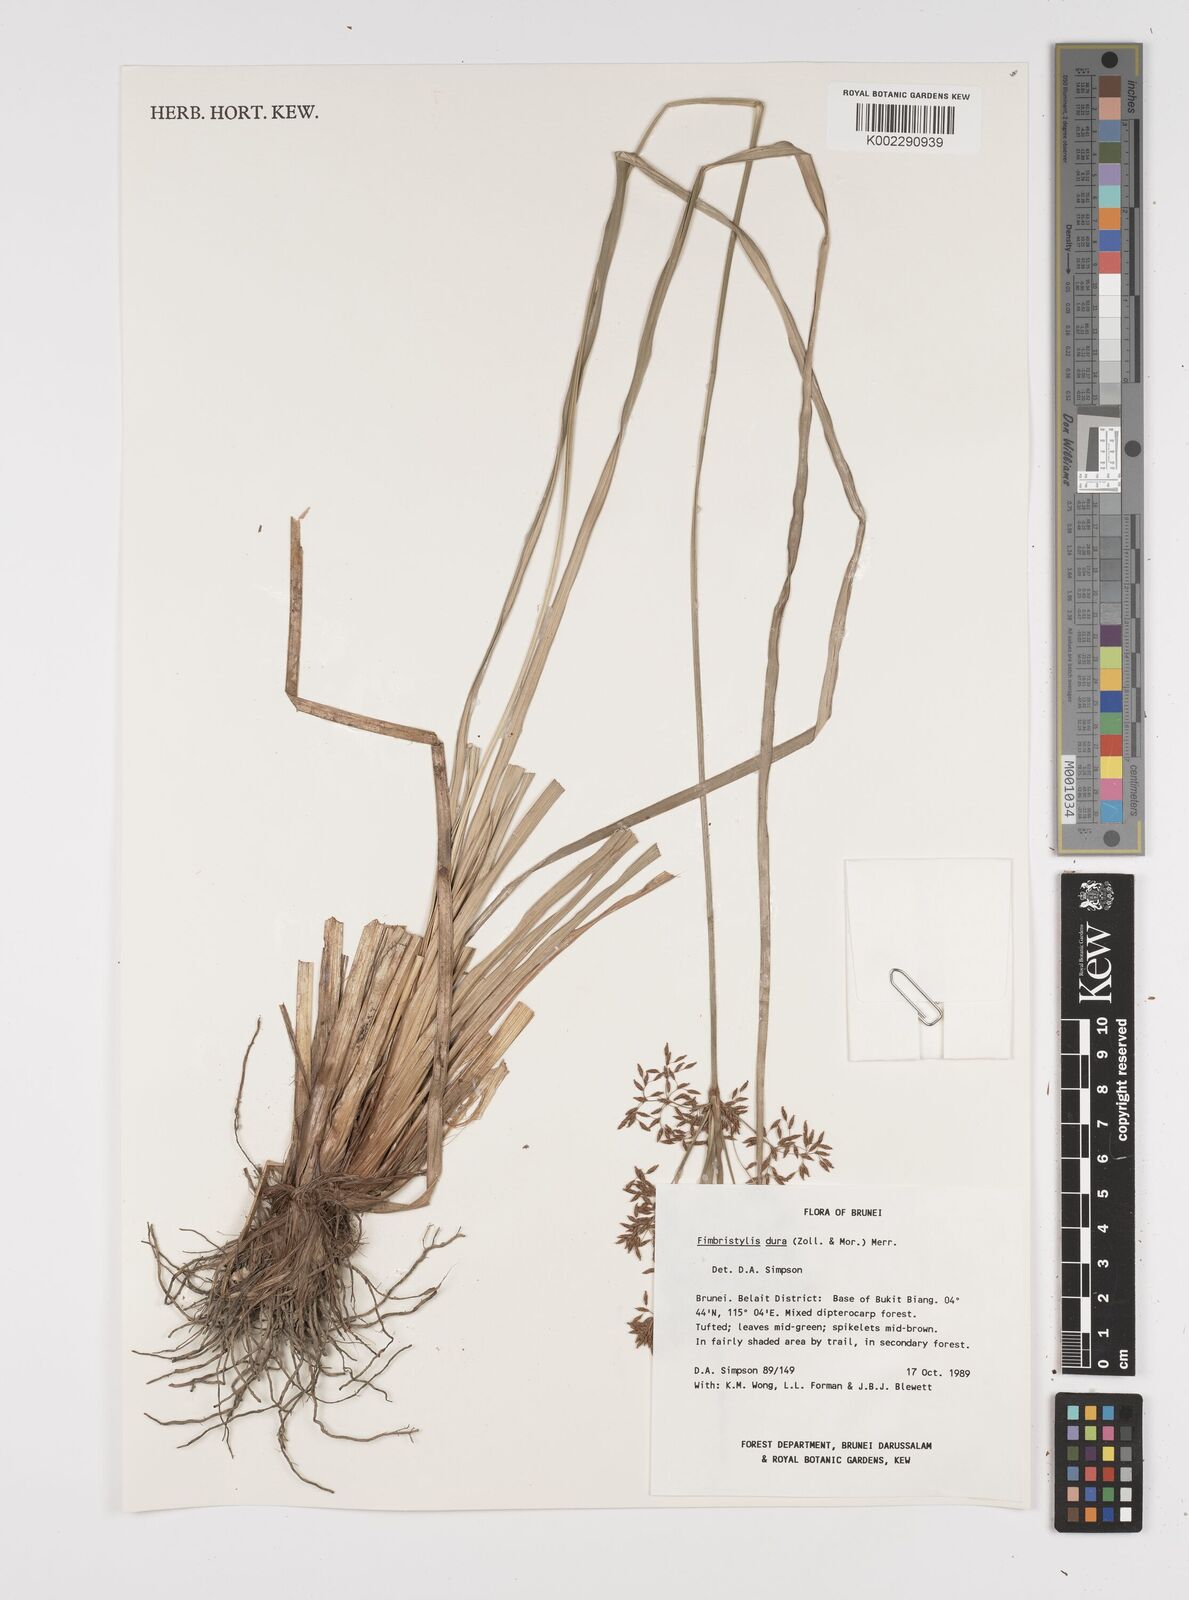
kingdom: Plantae
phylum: Tracheophyta
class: Liliopsida
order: Poales
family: Cyperaceae
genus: Fimbristylis
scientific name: Fimbristylis dura
